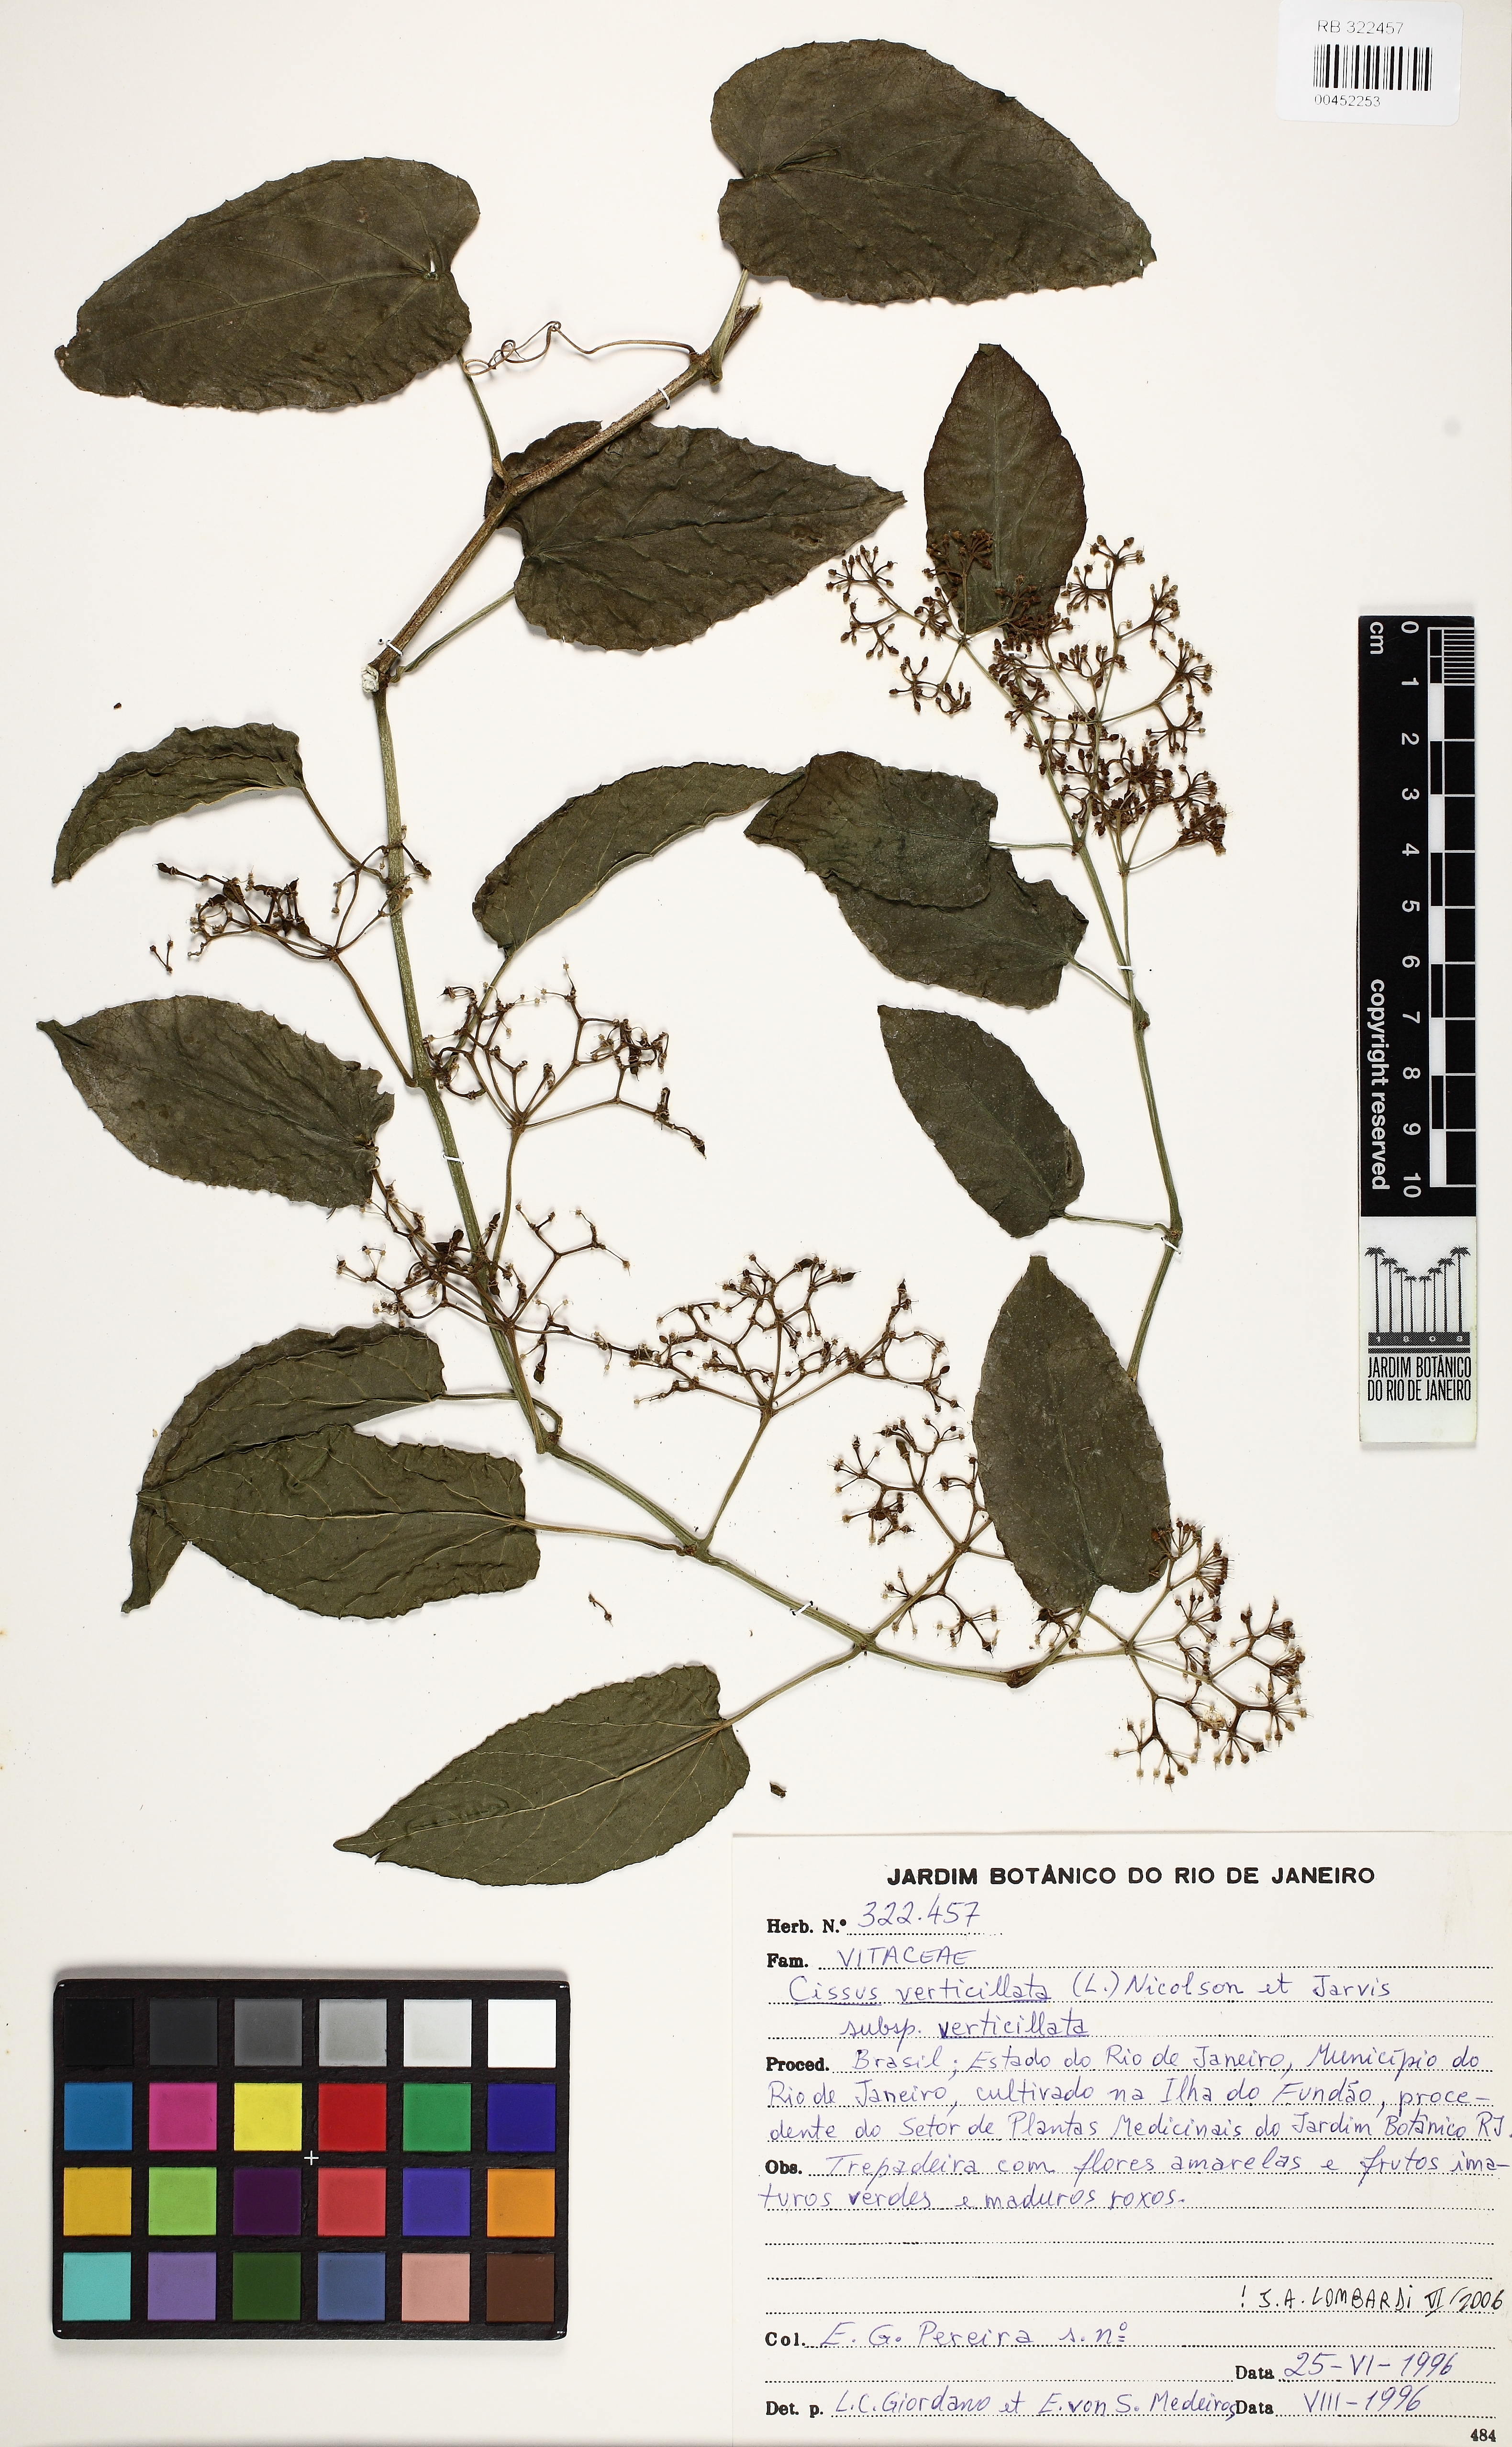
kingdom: Plantae
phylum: Tracheophyta
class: Magnoliopsida
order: Vitales
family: Vitaceae
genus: Cissus
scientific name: Cissus verticillata
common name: Princess vine
